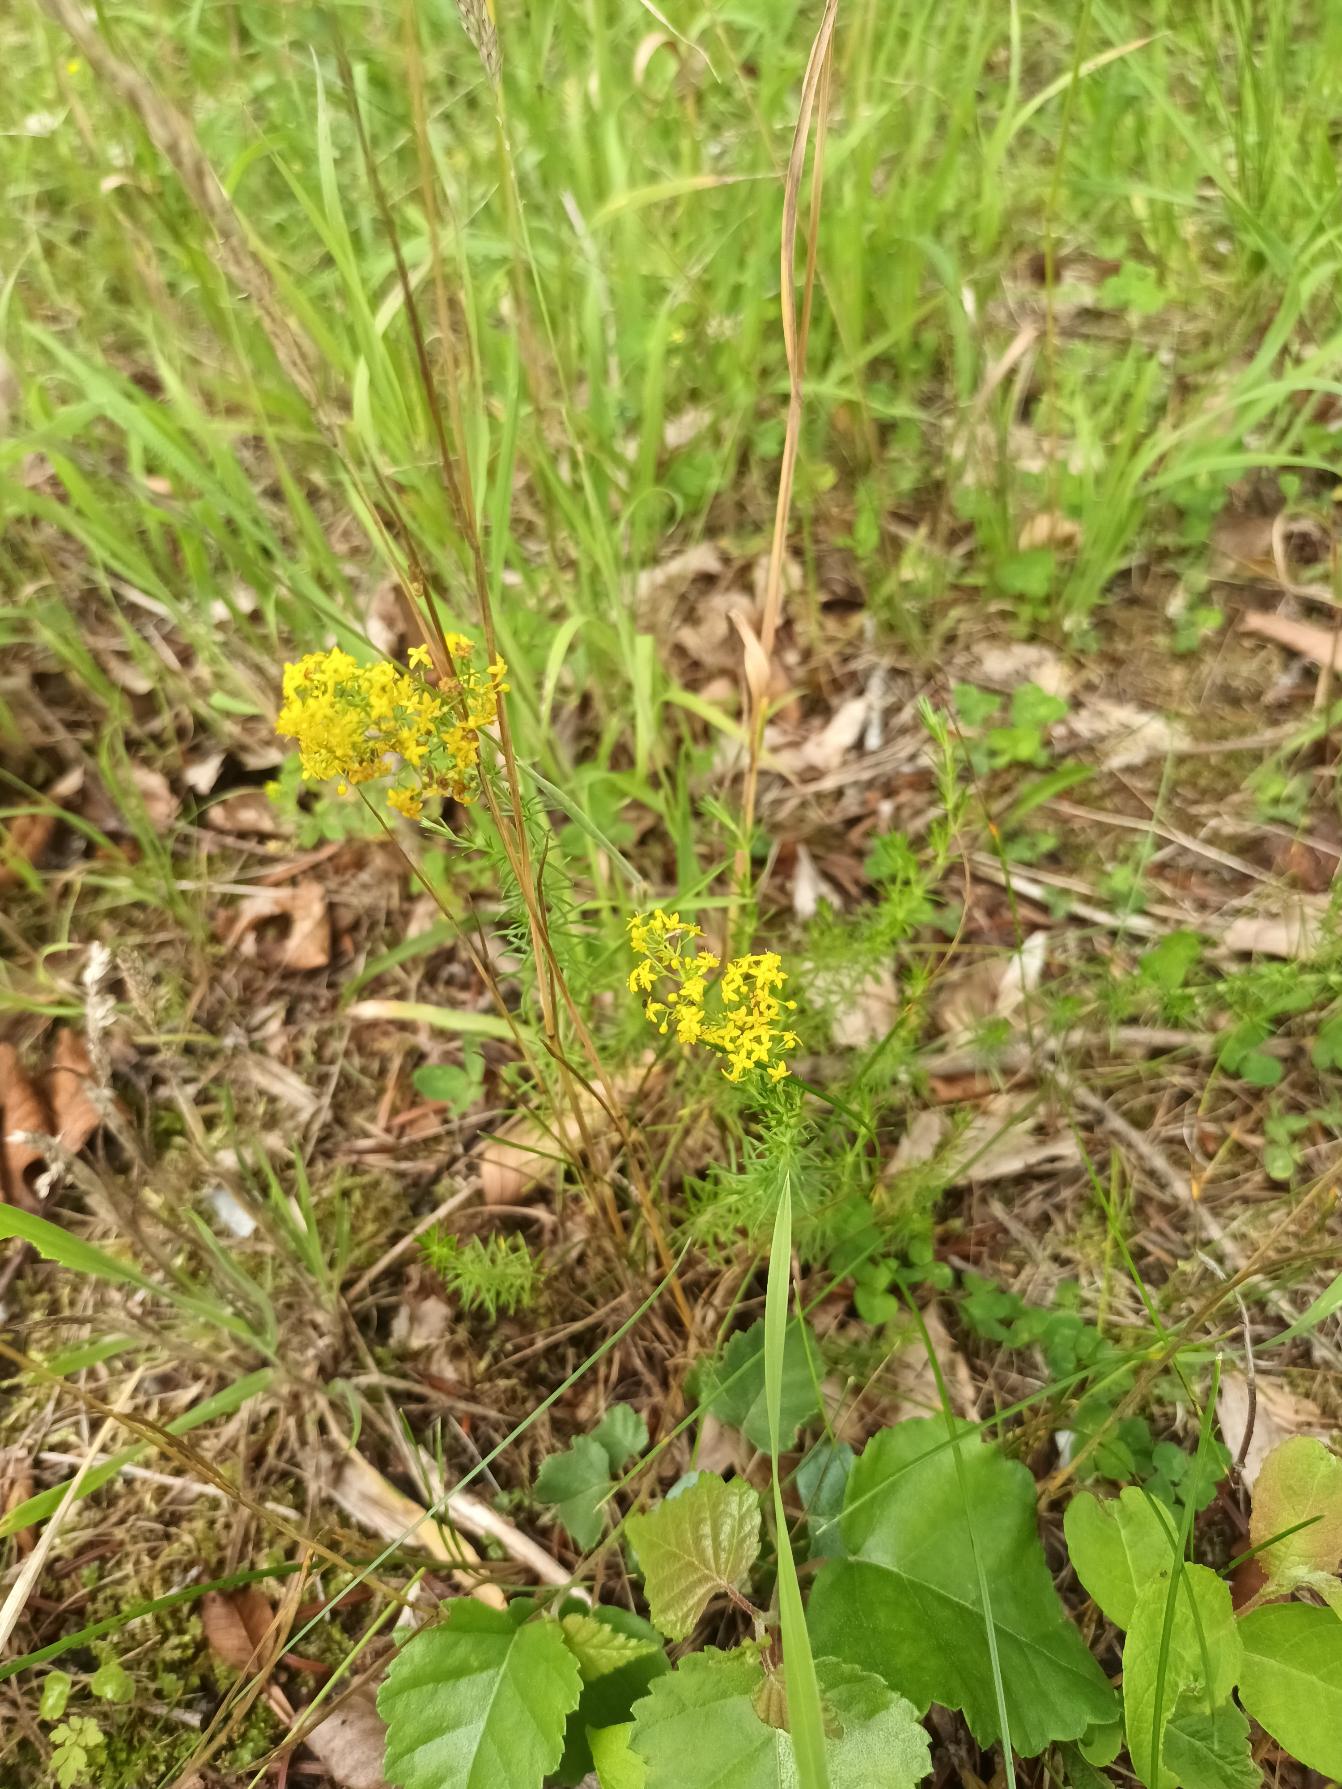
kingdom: Plantae
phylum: Tracheophyta
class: Magnoliopsida
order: Gentianales
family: Rubiaceae
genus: Galium
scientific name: Galium verum
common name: Gul snerre
